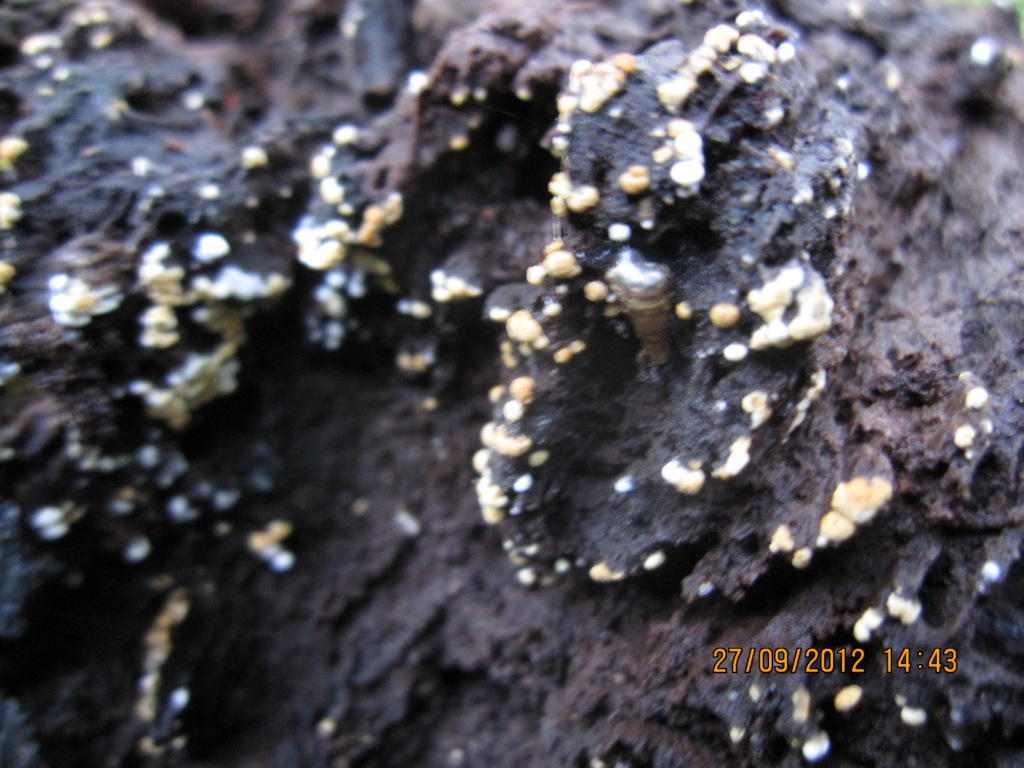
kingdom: Fungi
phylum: Basidiomycota
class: Agaricomycetes
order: Cantharellales
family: Botryobasidiaceae
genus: Botryobasidium
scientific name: Botryobasidium aureum
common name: gylden spindhinde
